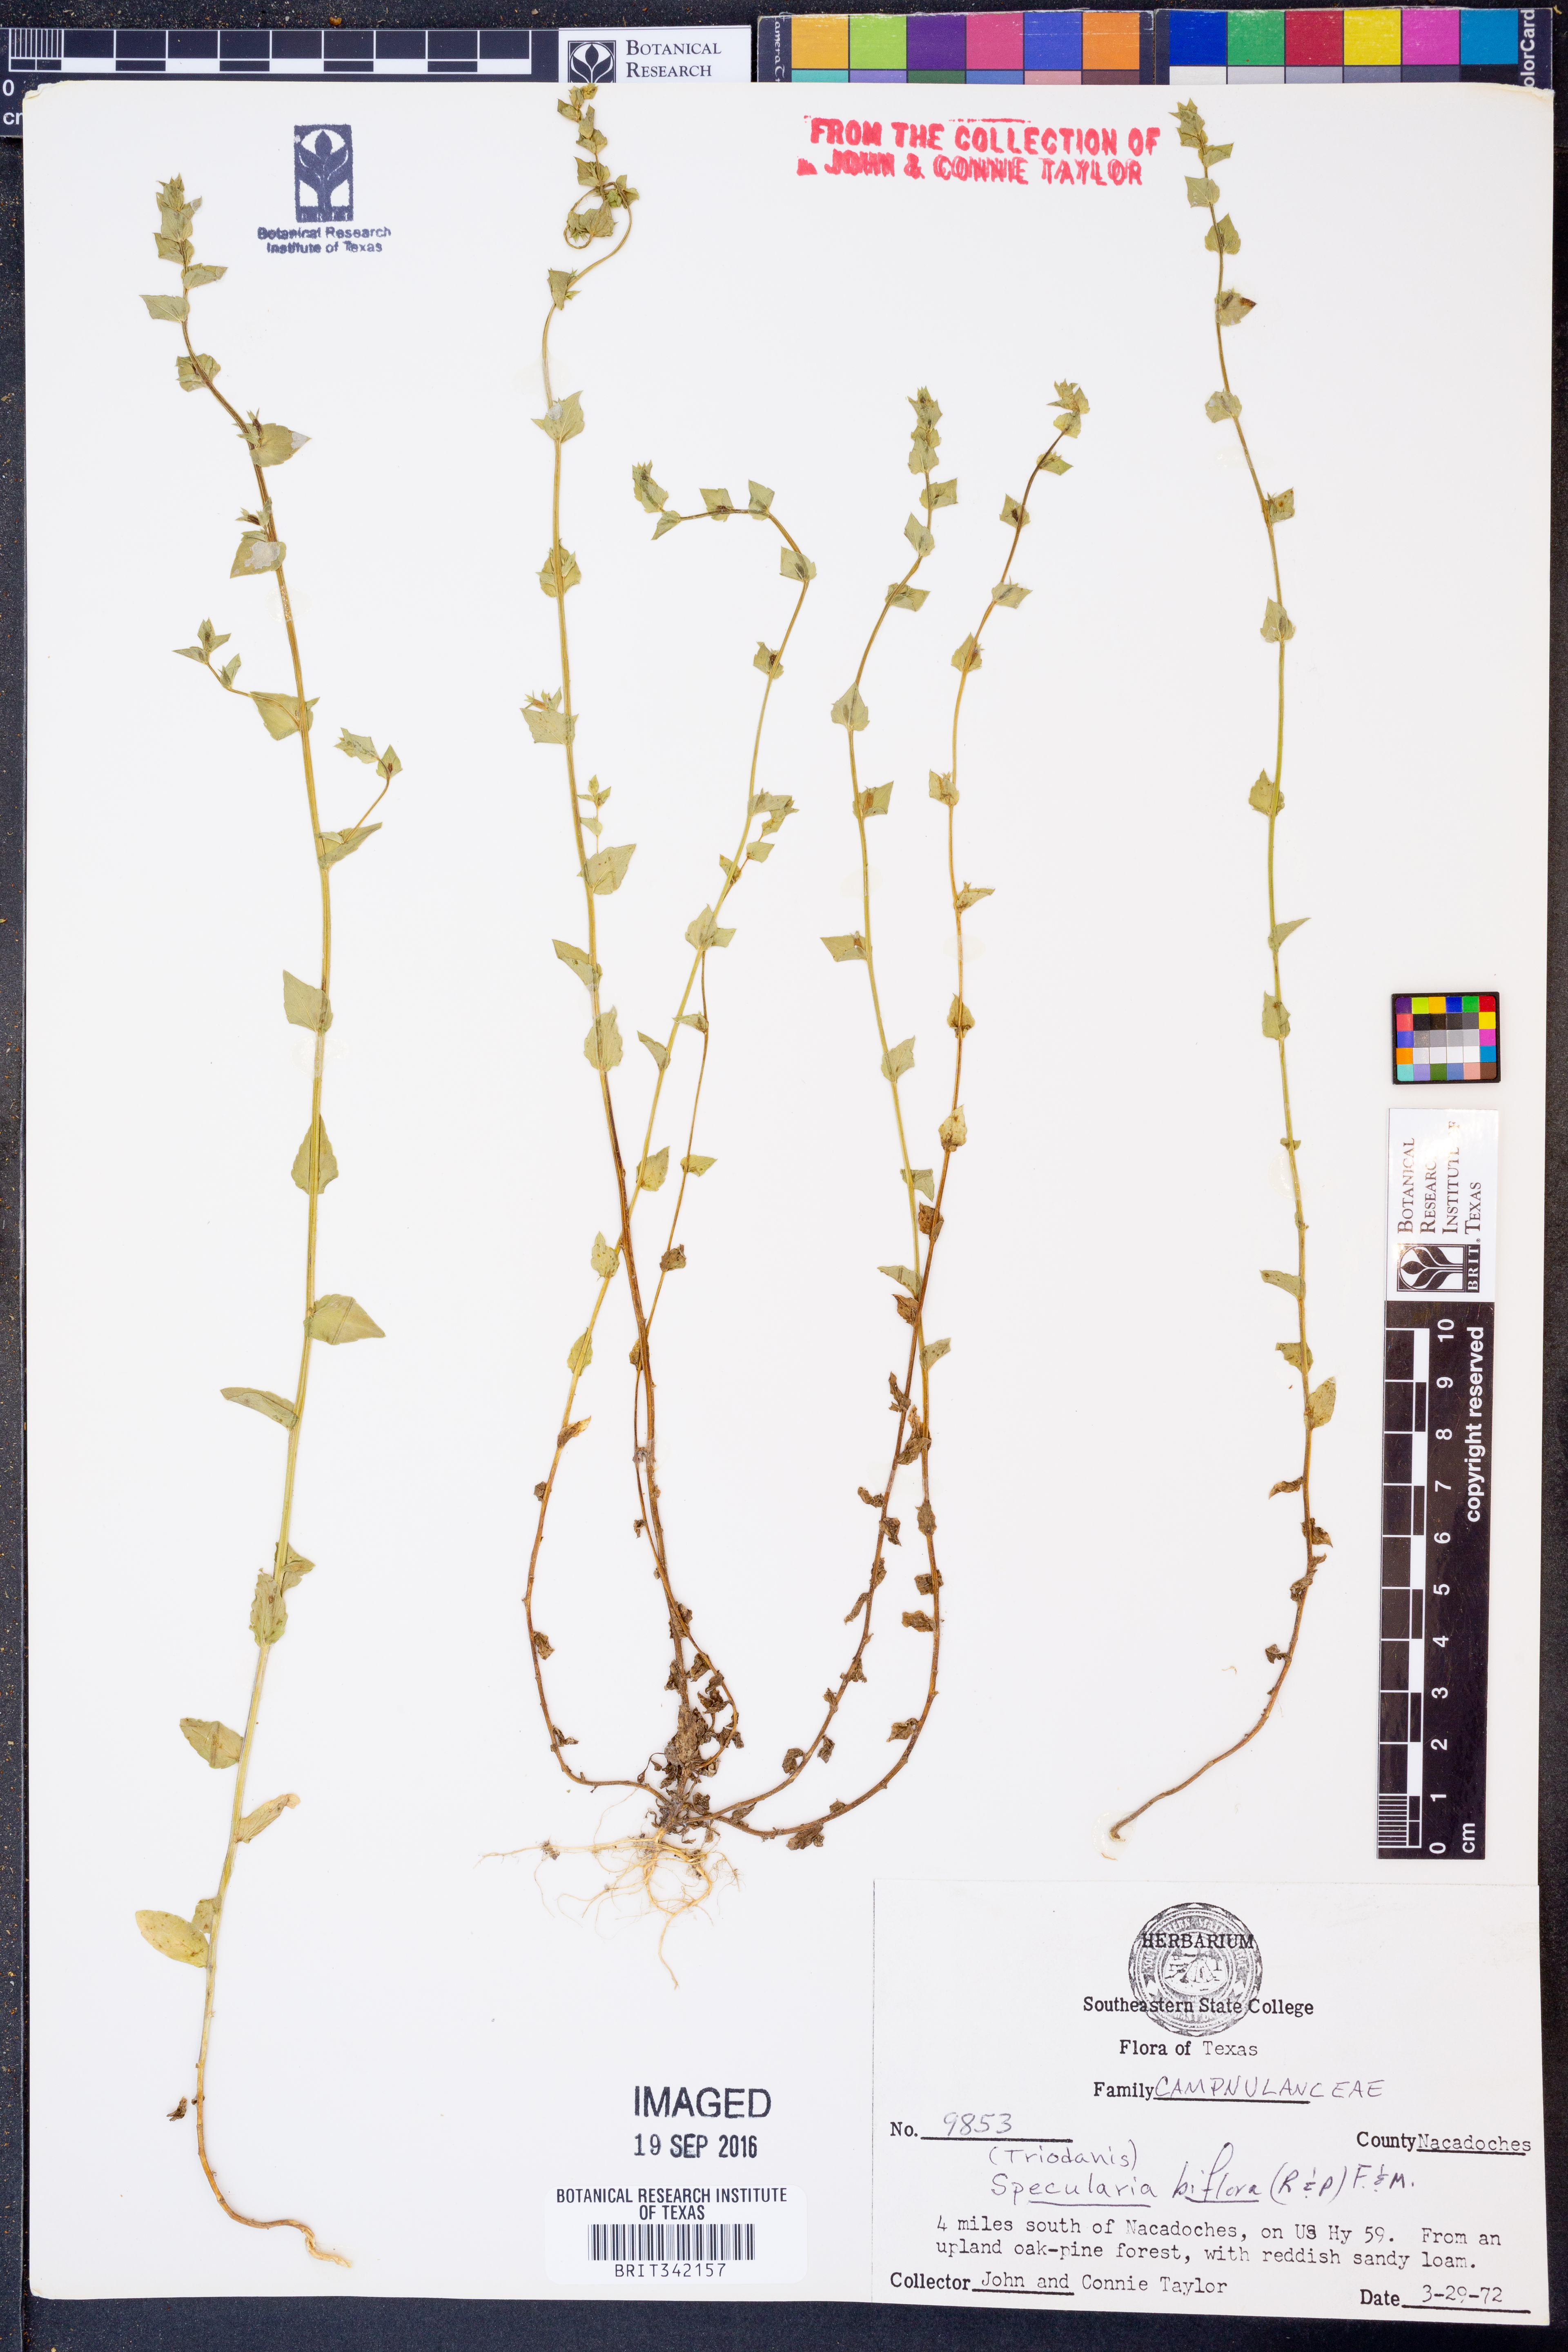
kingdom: Plantae
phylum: Tracheophyta
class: Magnoliopsida
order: Asterales
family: Campanulaceae
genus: Triodanis
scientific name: Triodanis perfoliata
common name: Clasping venus' looking-glass
